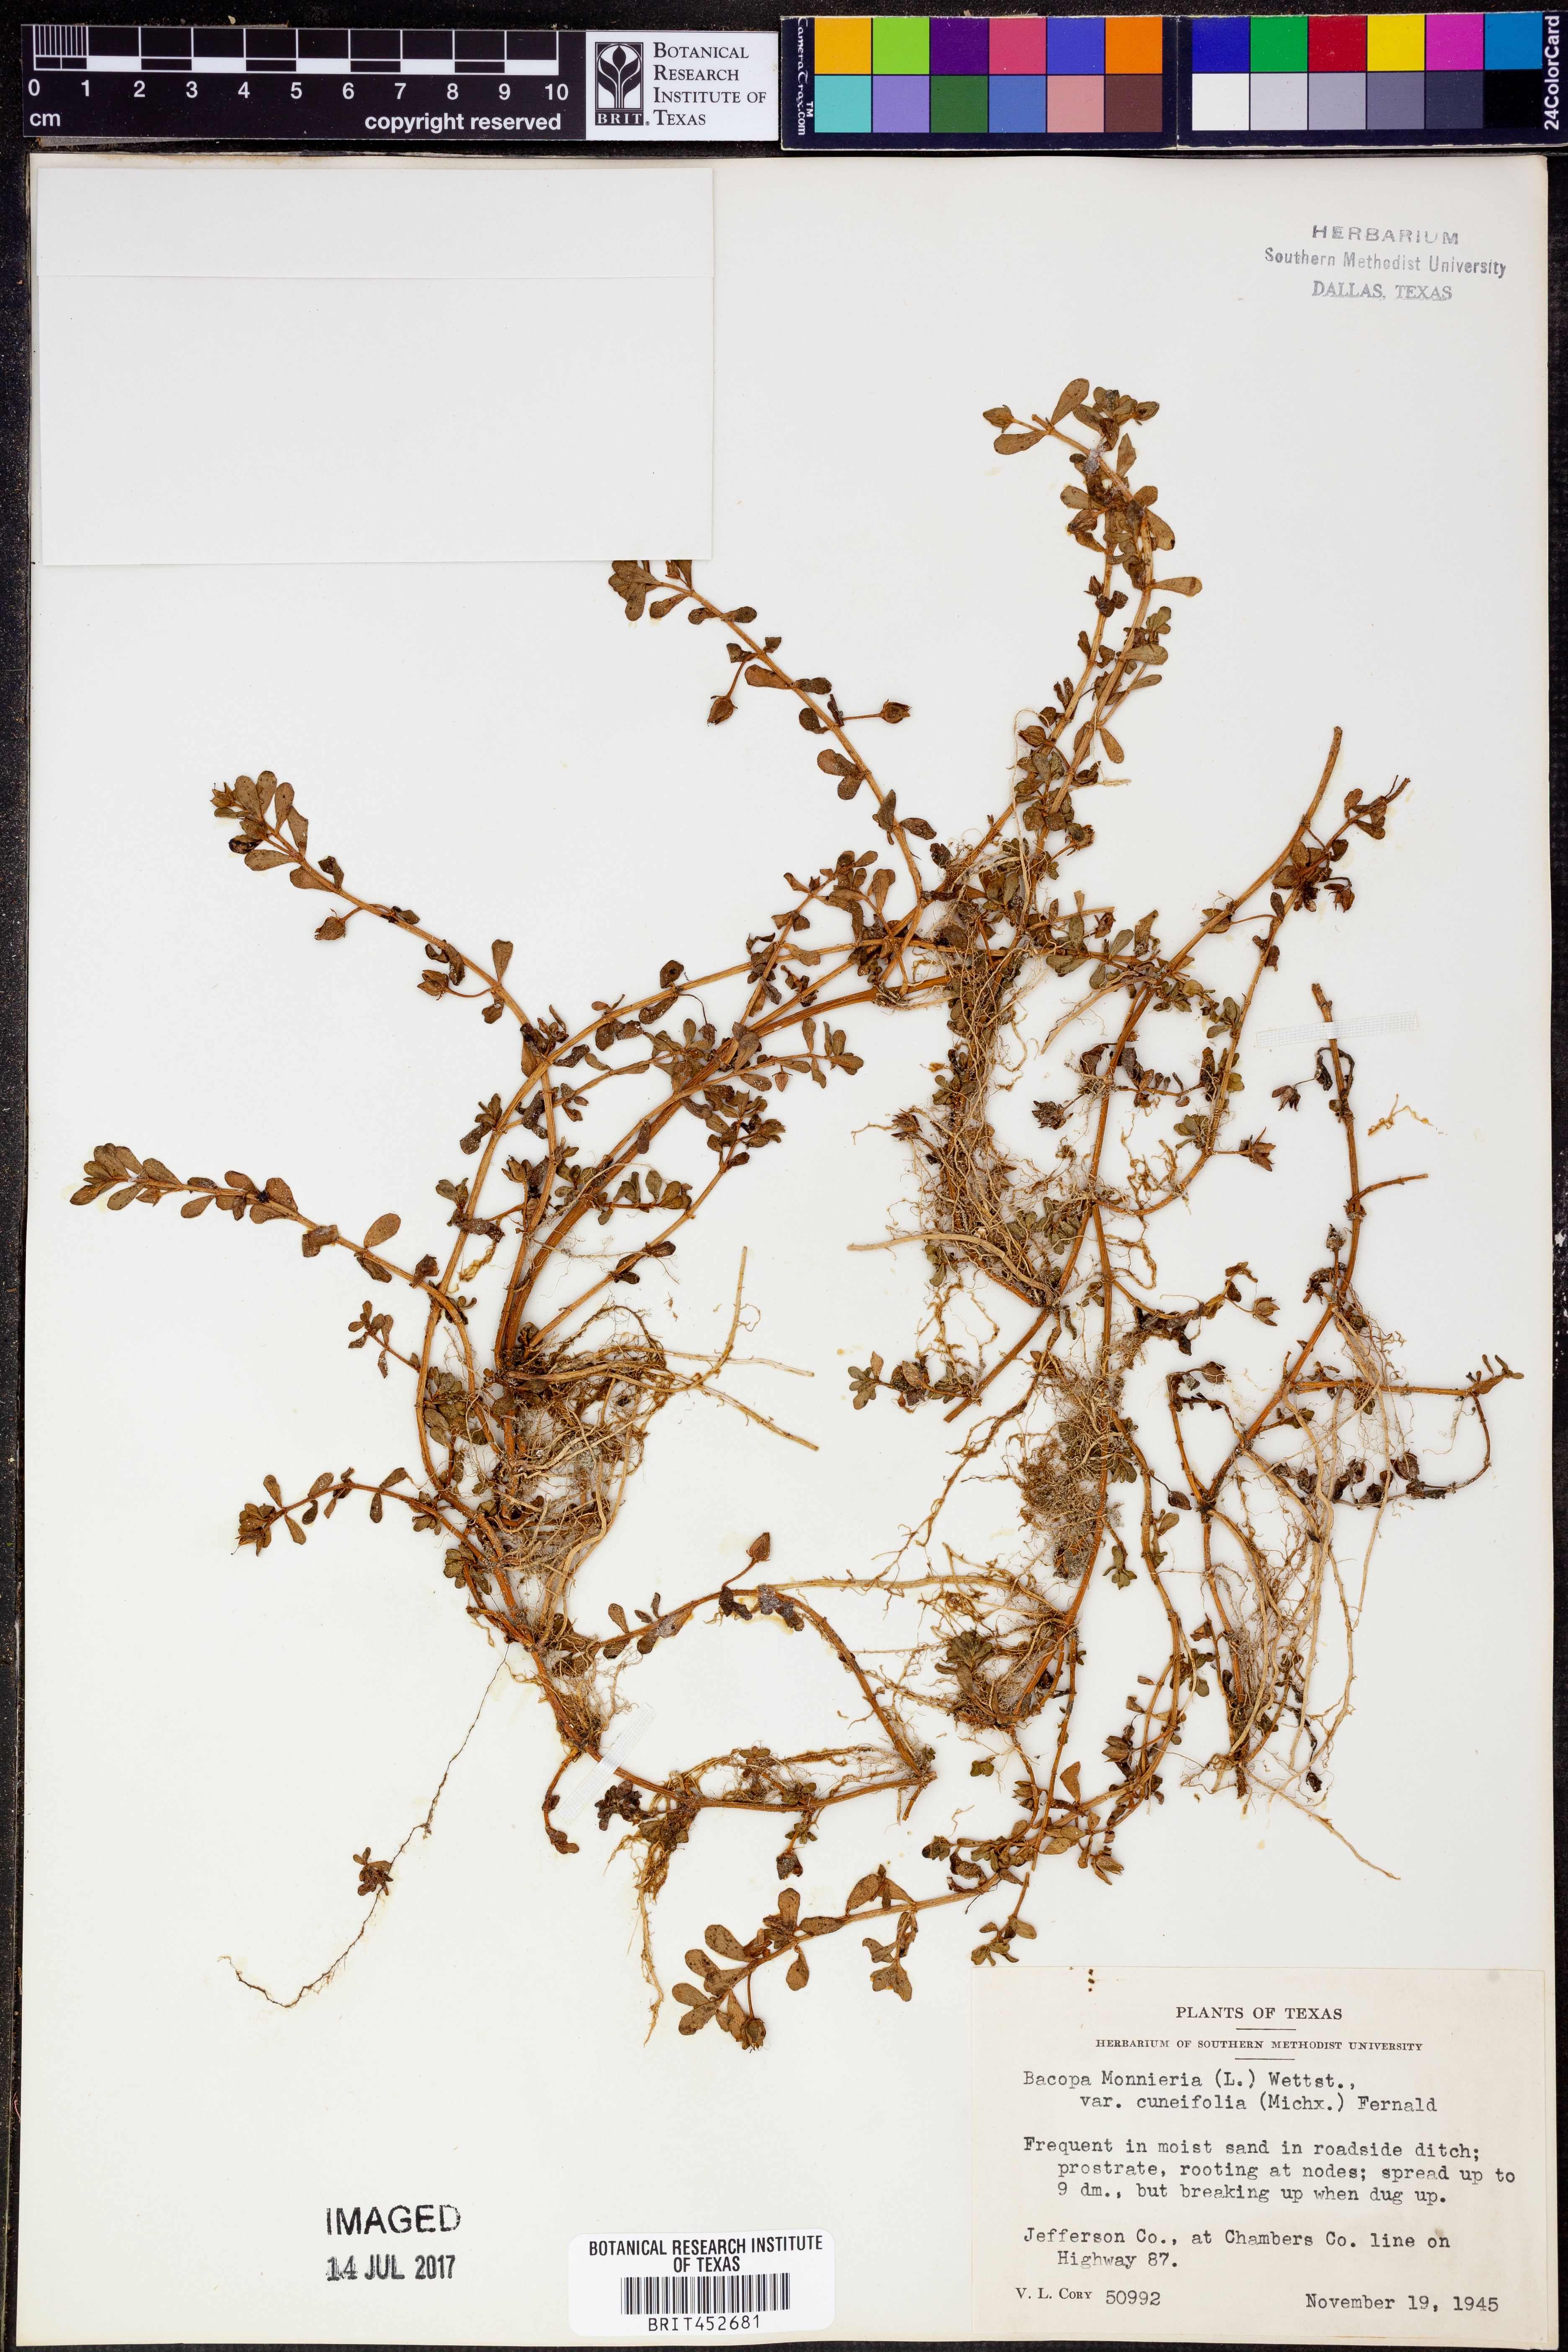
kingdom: Plantae
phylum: Tracheophyta
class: Magnoliopsida
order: Lamiales
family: Plantaginaceae
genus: Bacopa
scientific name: Bacopa monnieri
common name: Indian-pennywort
